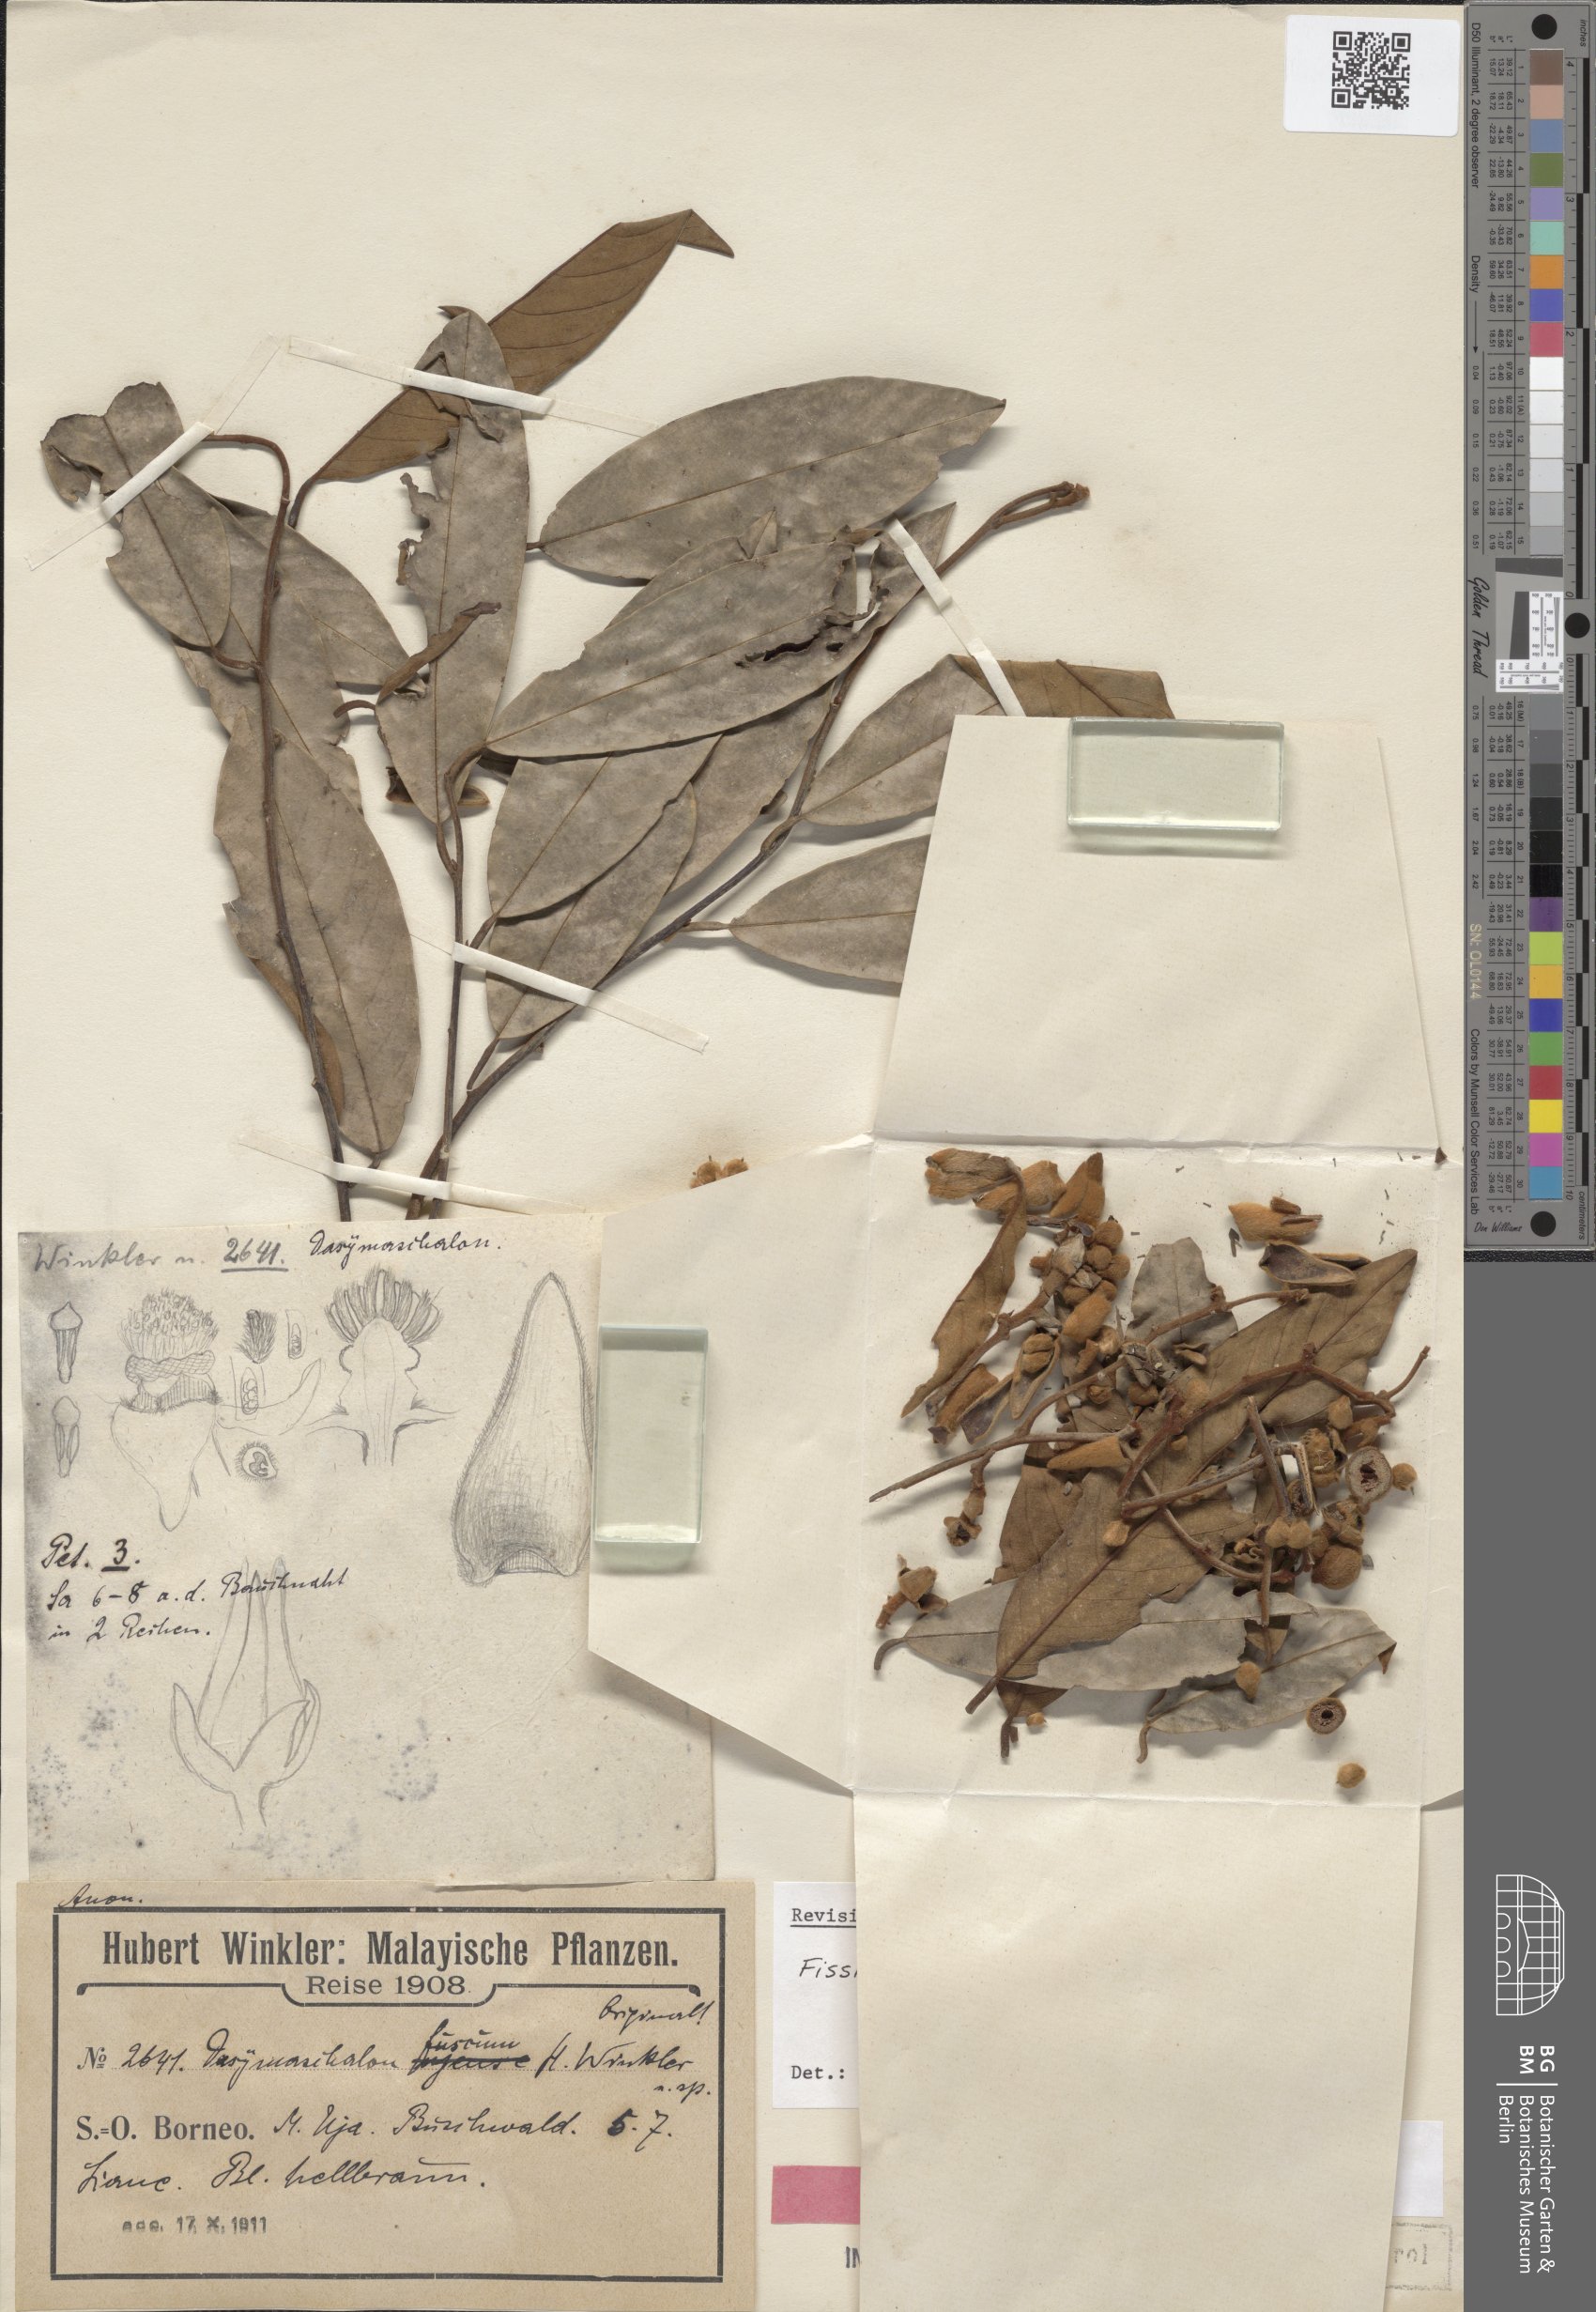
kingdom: Plantae
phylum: Tracheophyta
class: Magnoliopsida
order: Magnoliales
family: Annonaceae
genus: Dasymaschalon
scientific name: Dasymaschalon
